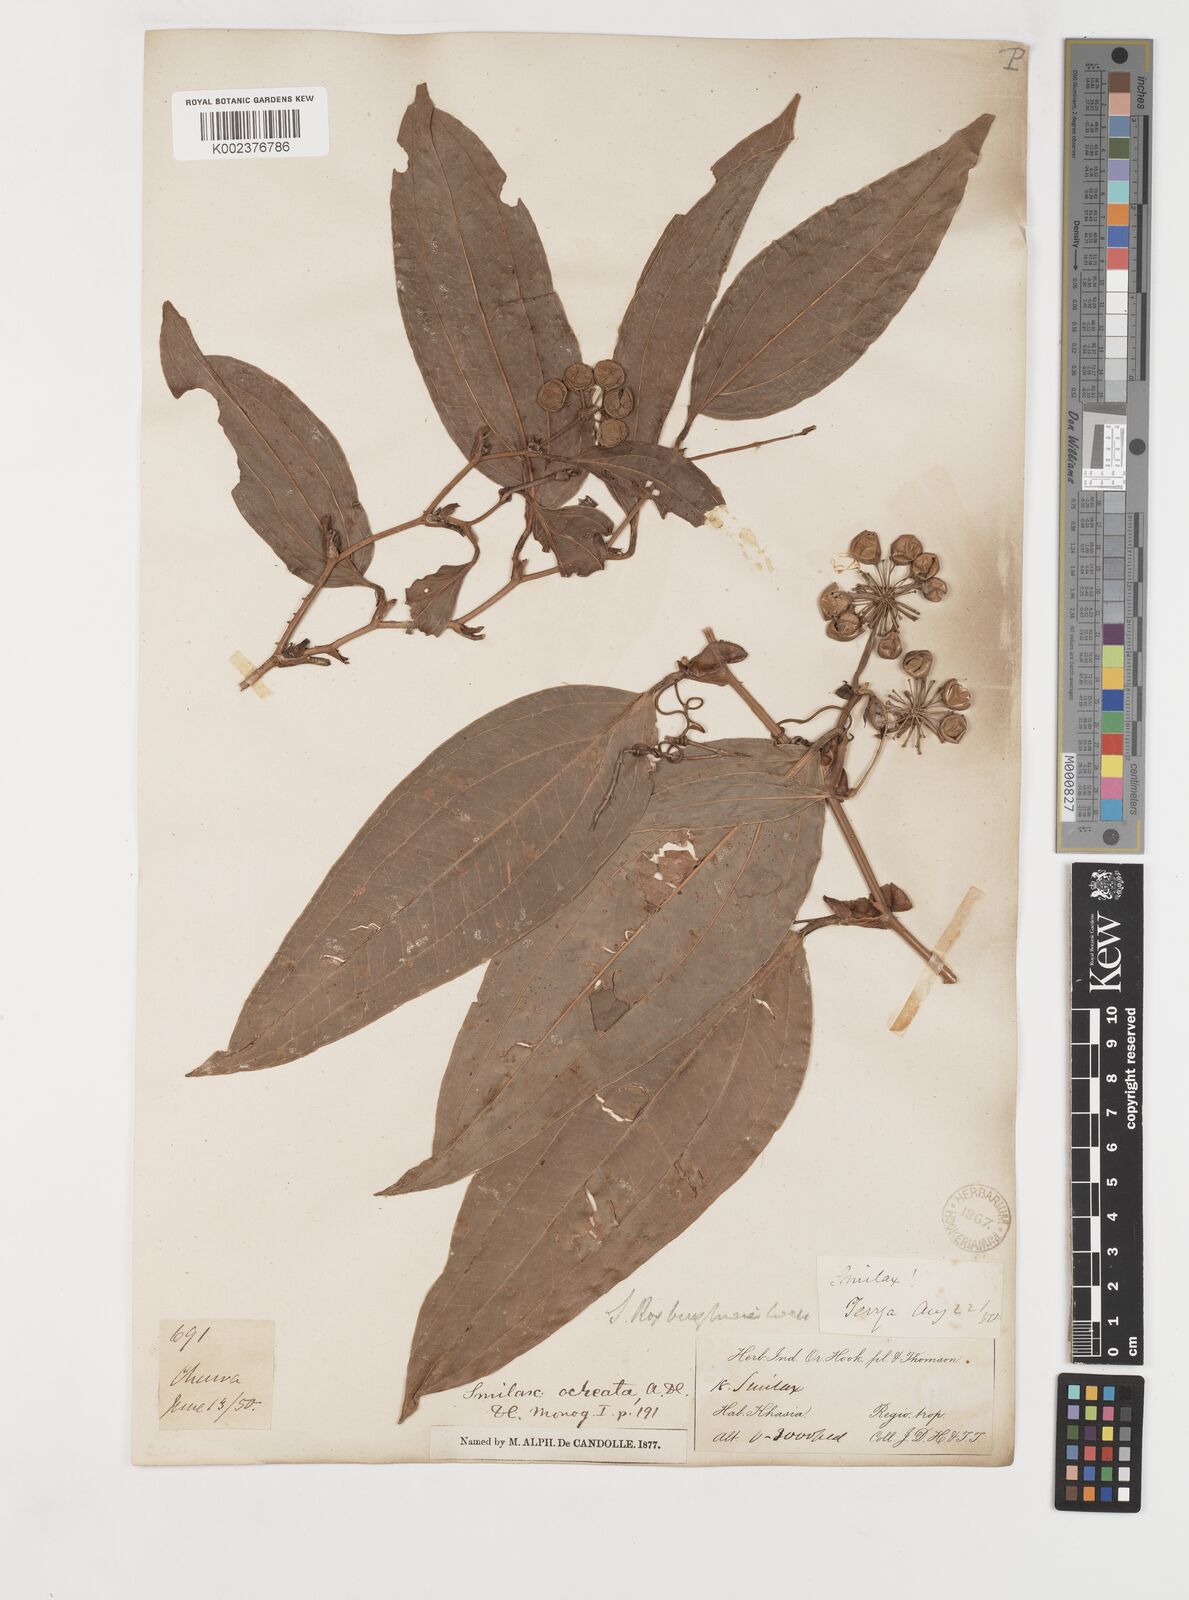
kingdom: Plantae
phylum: Tracheophyta
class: Liliopsida
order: Liliales
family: Smilacaceae
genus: Smilax
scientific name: Smilax ocreata
